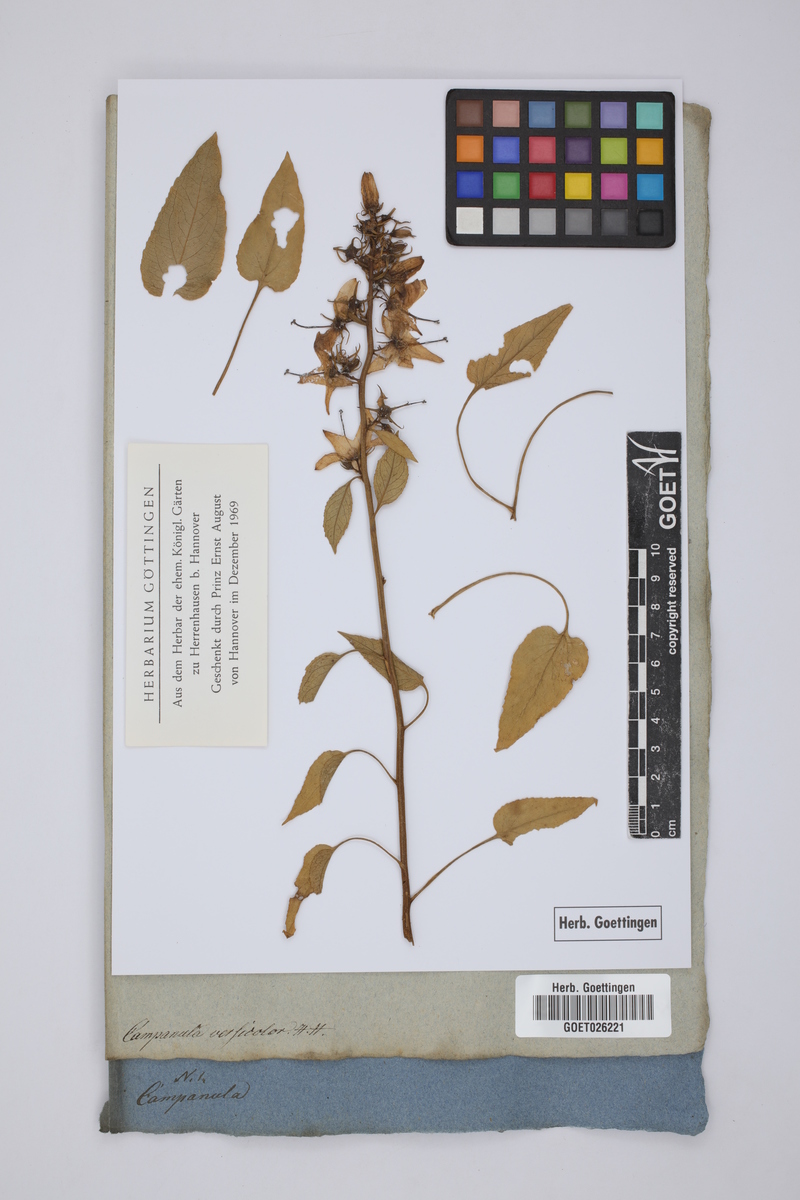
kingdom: Plantae
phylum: Tracheophyta
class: Magnoliopsida
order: Asterales
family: Campanulaceae
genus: Campanula
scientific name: Campanula versicolor
